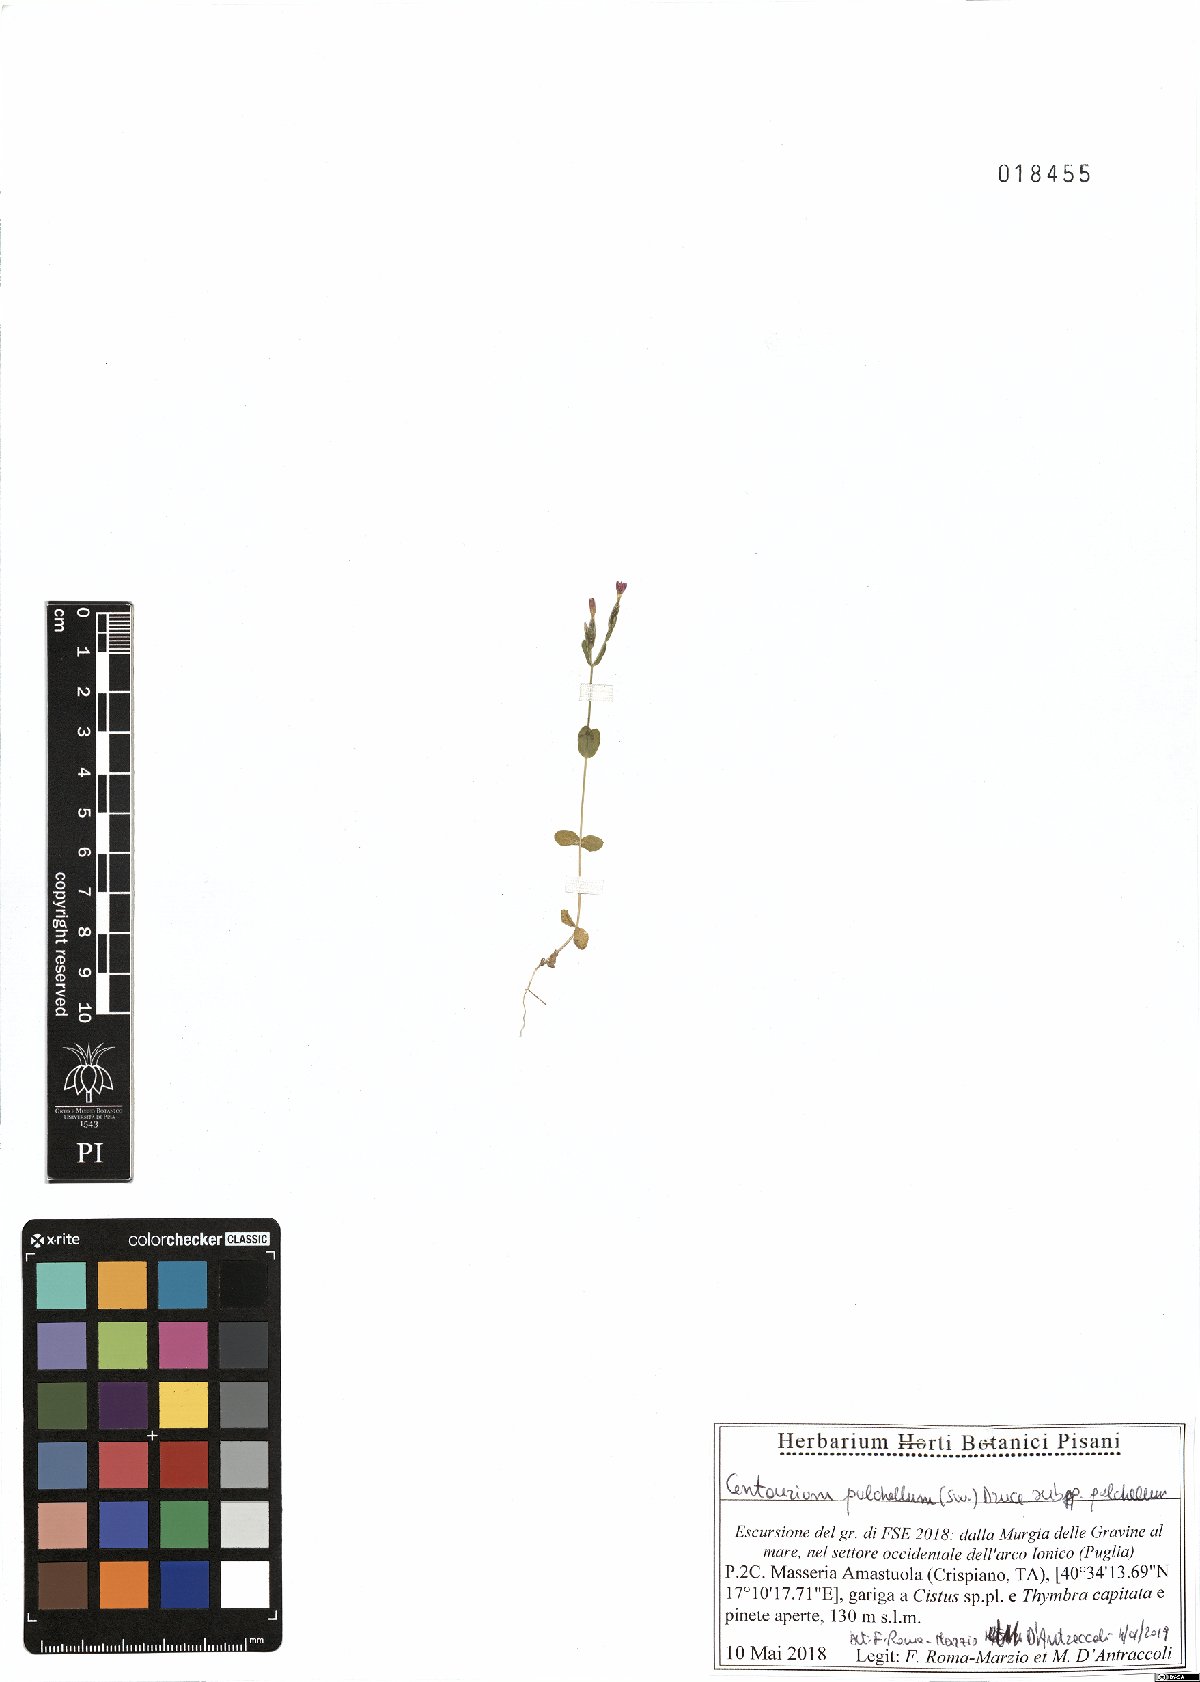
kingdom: Plantae
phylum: Tracheophyta
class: Magnoliopsida
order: Gentianales
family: Gentianaceae
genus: Centaurium
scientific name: Centaurium pulchellum
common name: Lesser centaury
